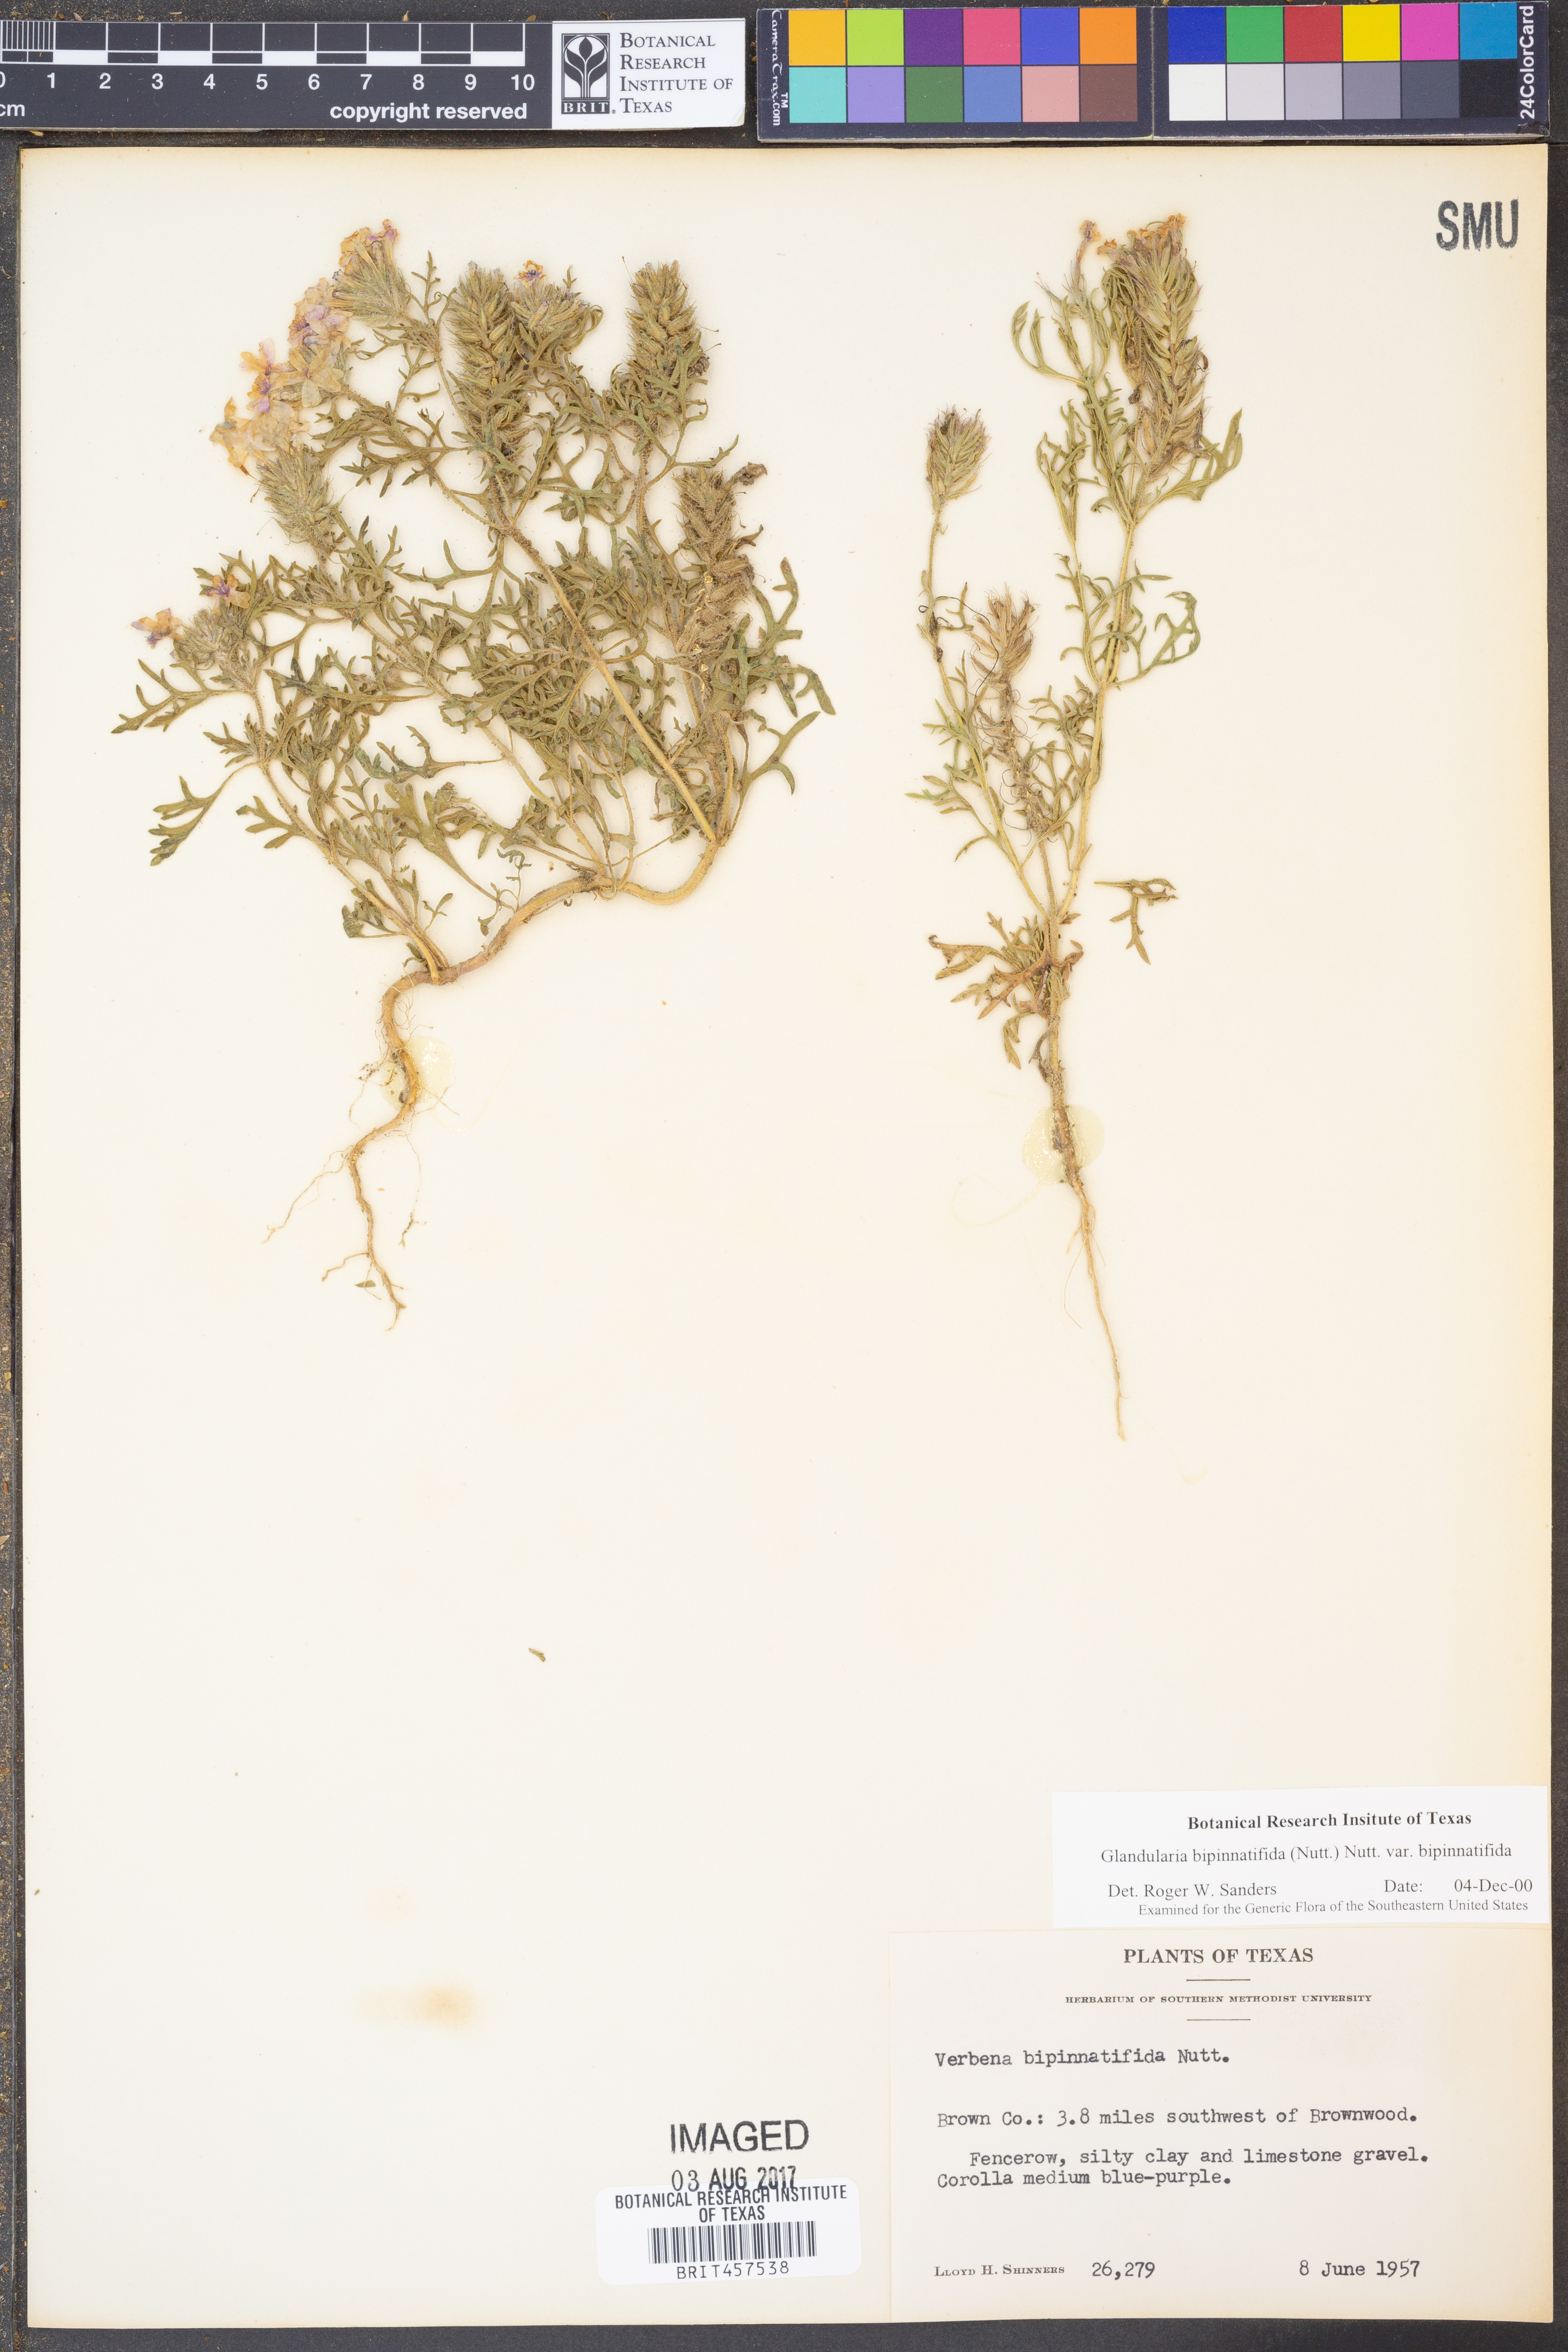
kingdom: Plantae
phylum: Tracheophyta
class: Magnoliopsida
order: Lamiales
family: Verbenaceae
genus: Verbena
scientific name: Verbena bipinnatifida
